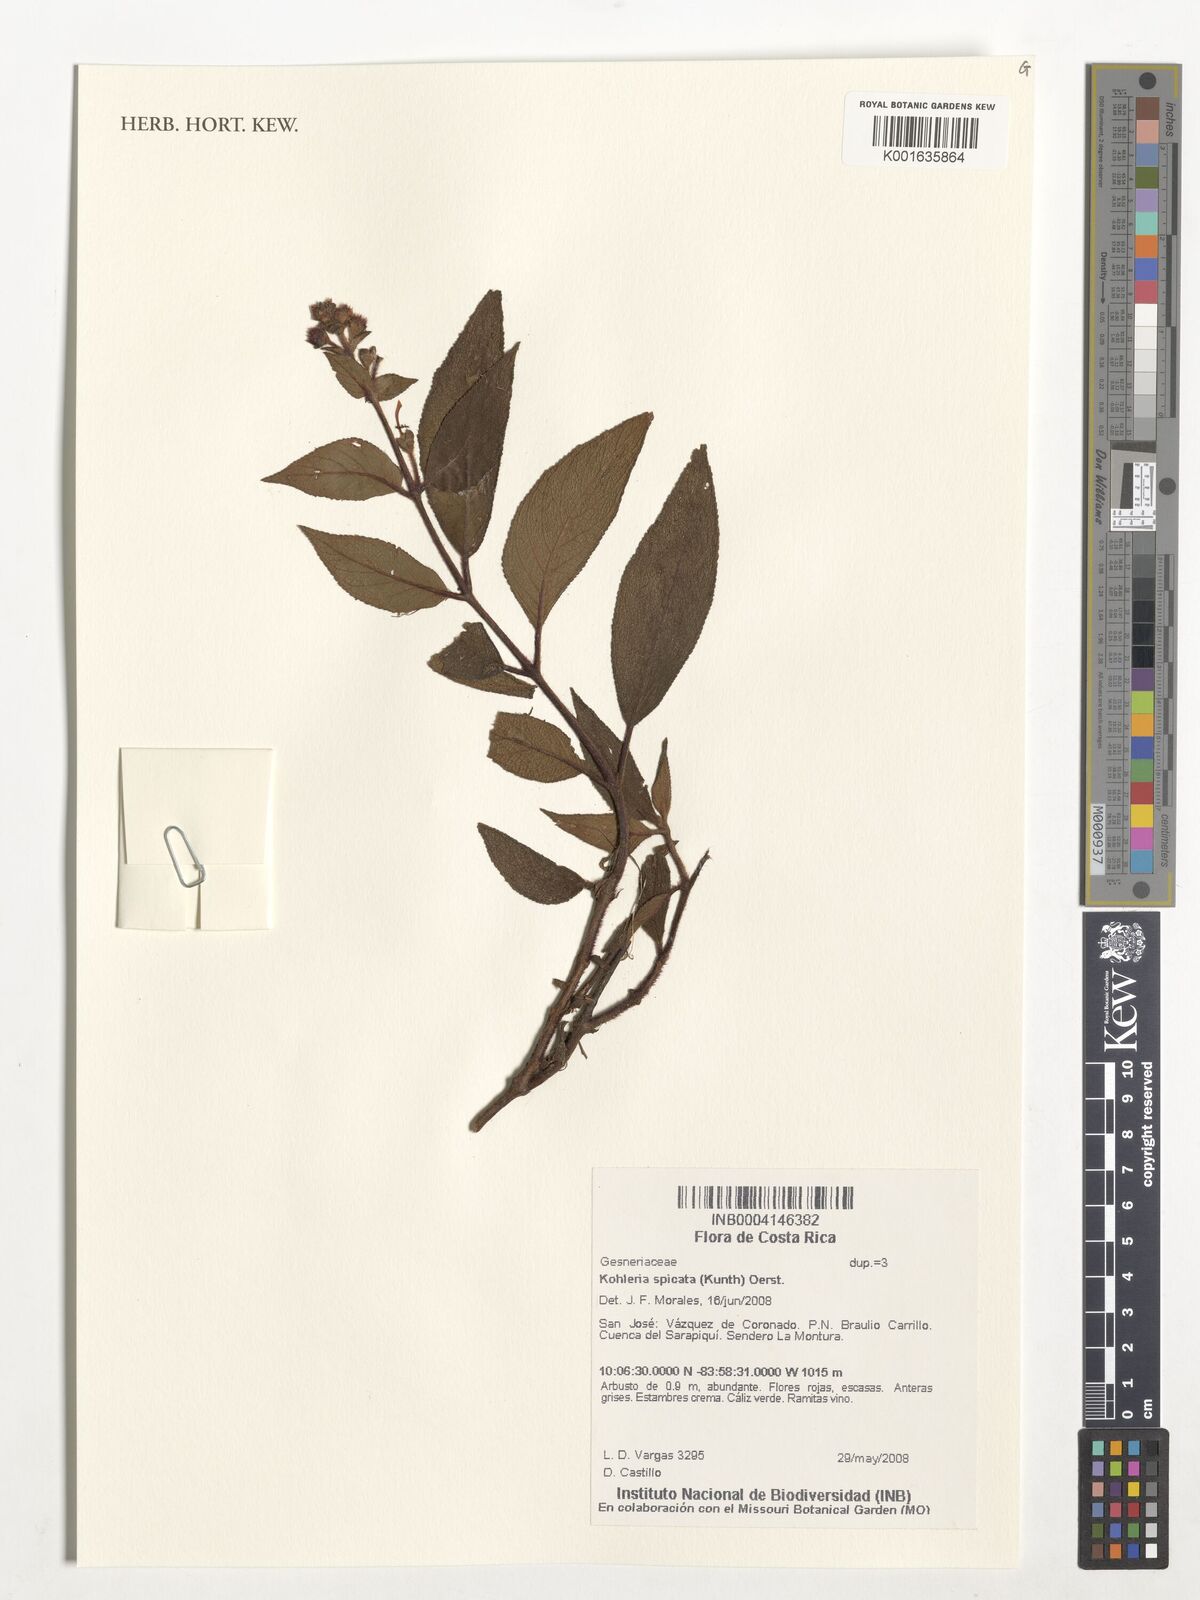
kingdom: Plantae
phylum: Tracheophyta
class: Magnoliopsida
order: Lamiales
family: Gesneriaceae
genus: Kohleria
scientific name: Kohleria spicata
